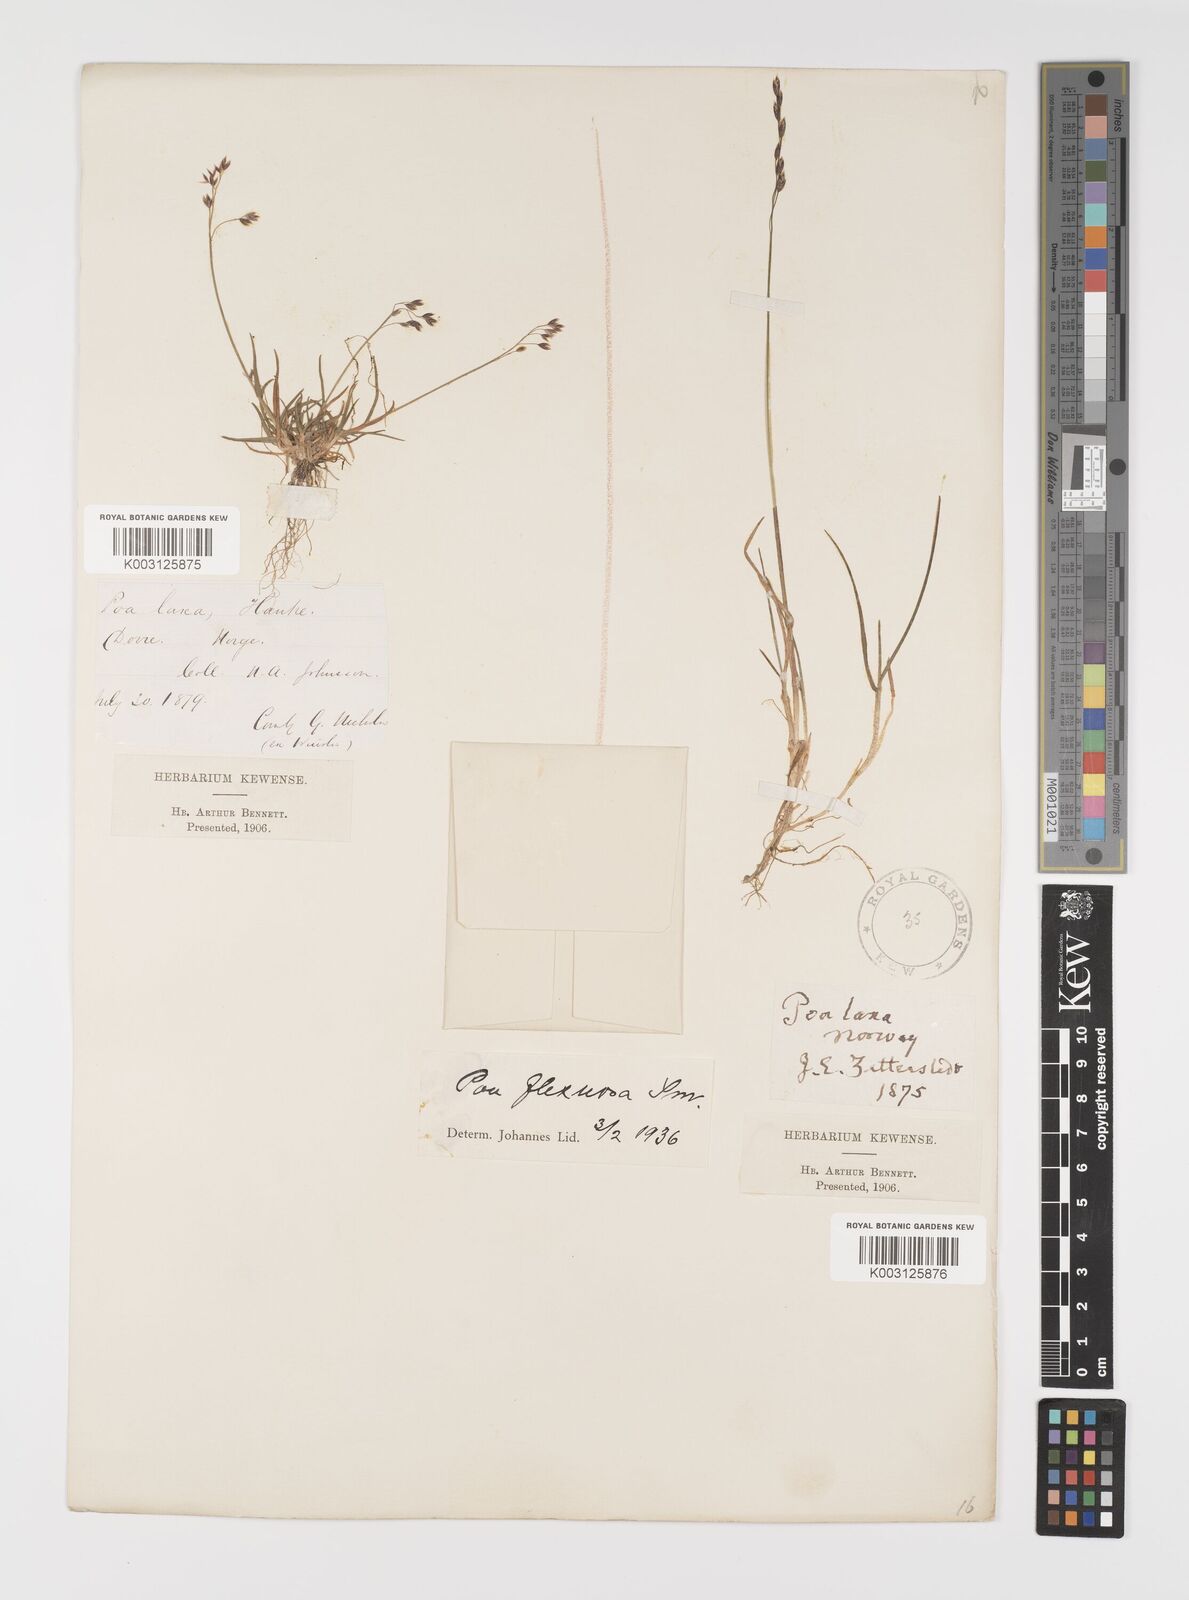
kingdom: Plantae
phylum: Tracheophyta
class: Liliopsida
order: Poales
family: Poaceae
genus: Eragrostis
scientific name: Eragrostis cilianensis
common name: Stinkgrass
